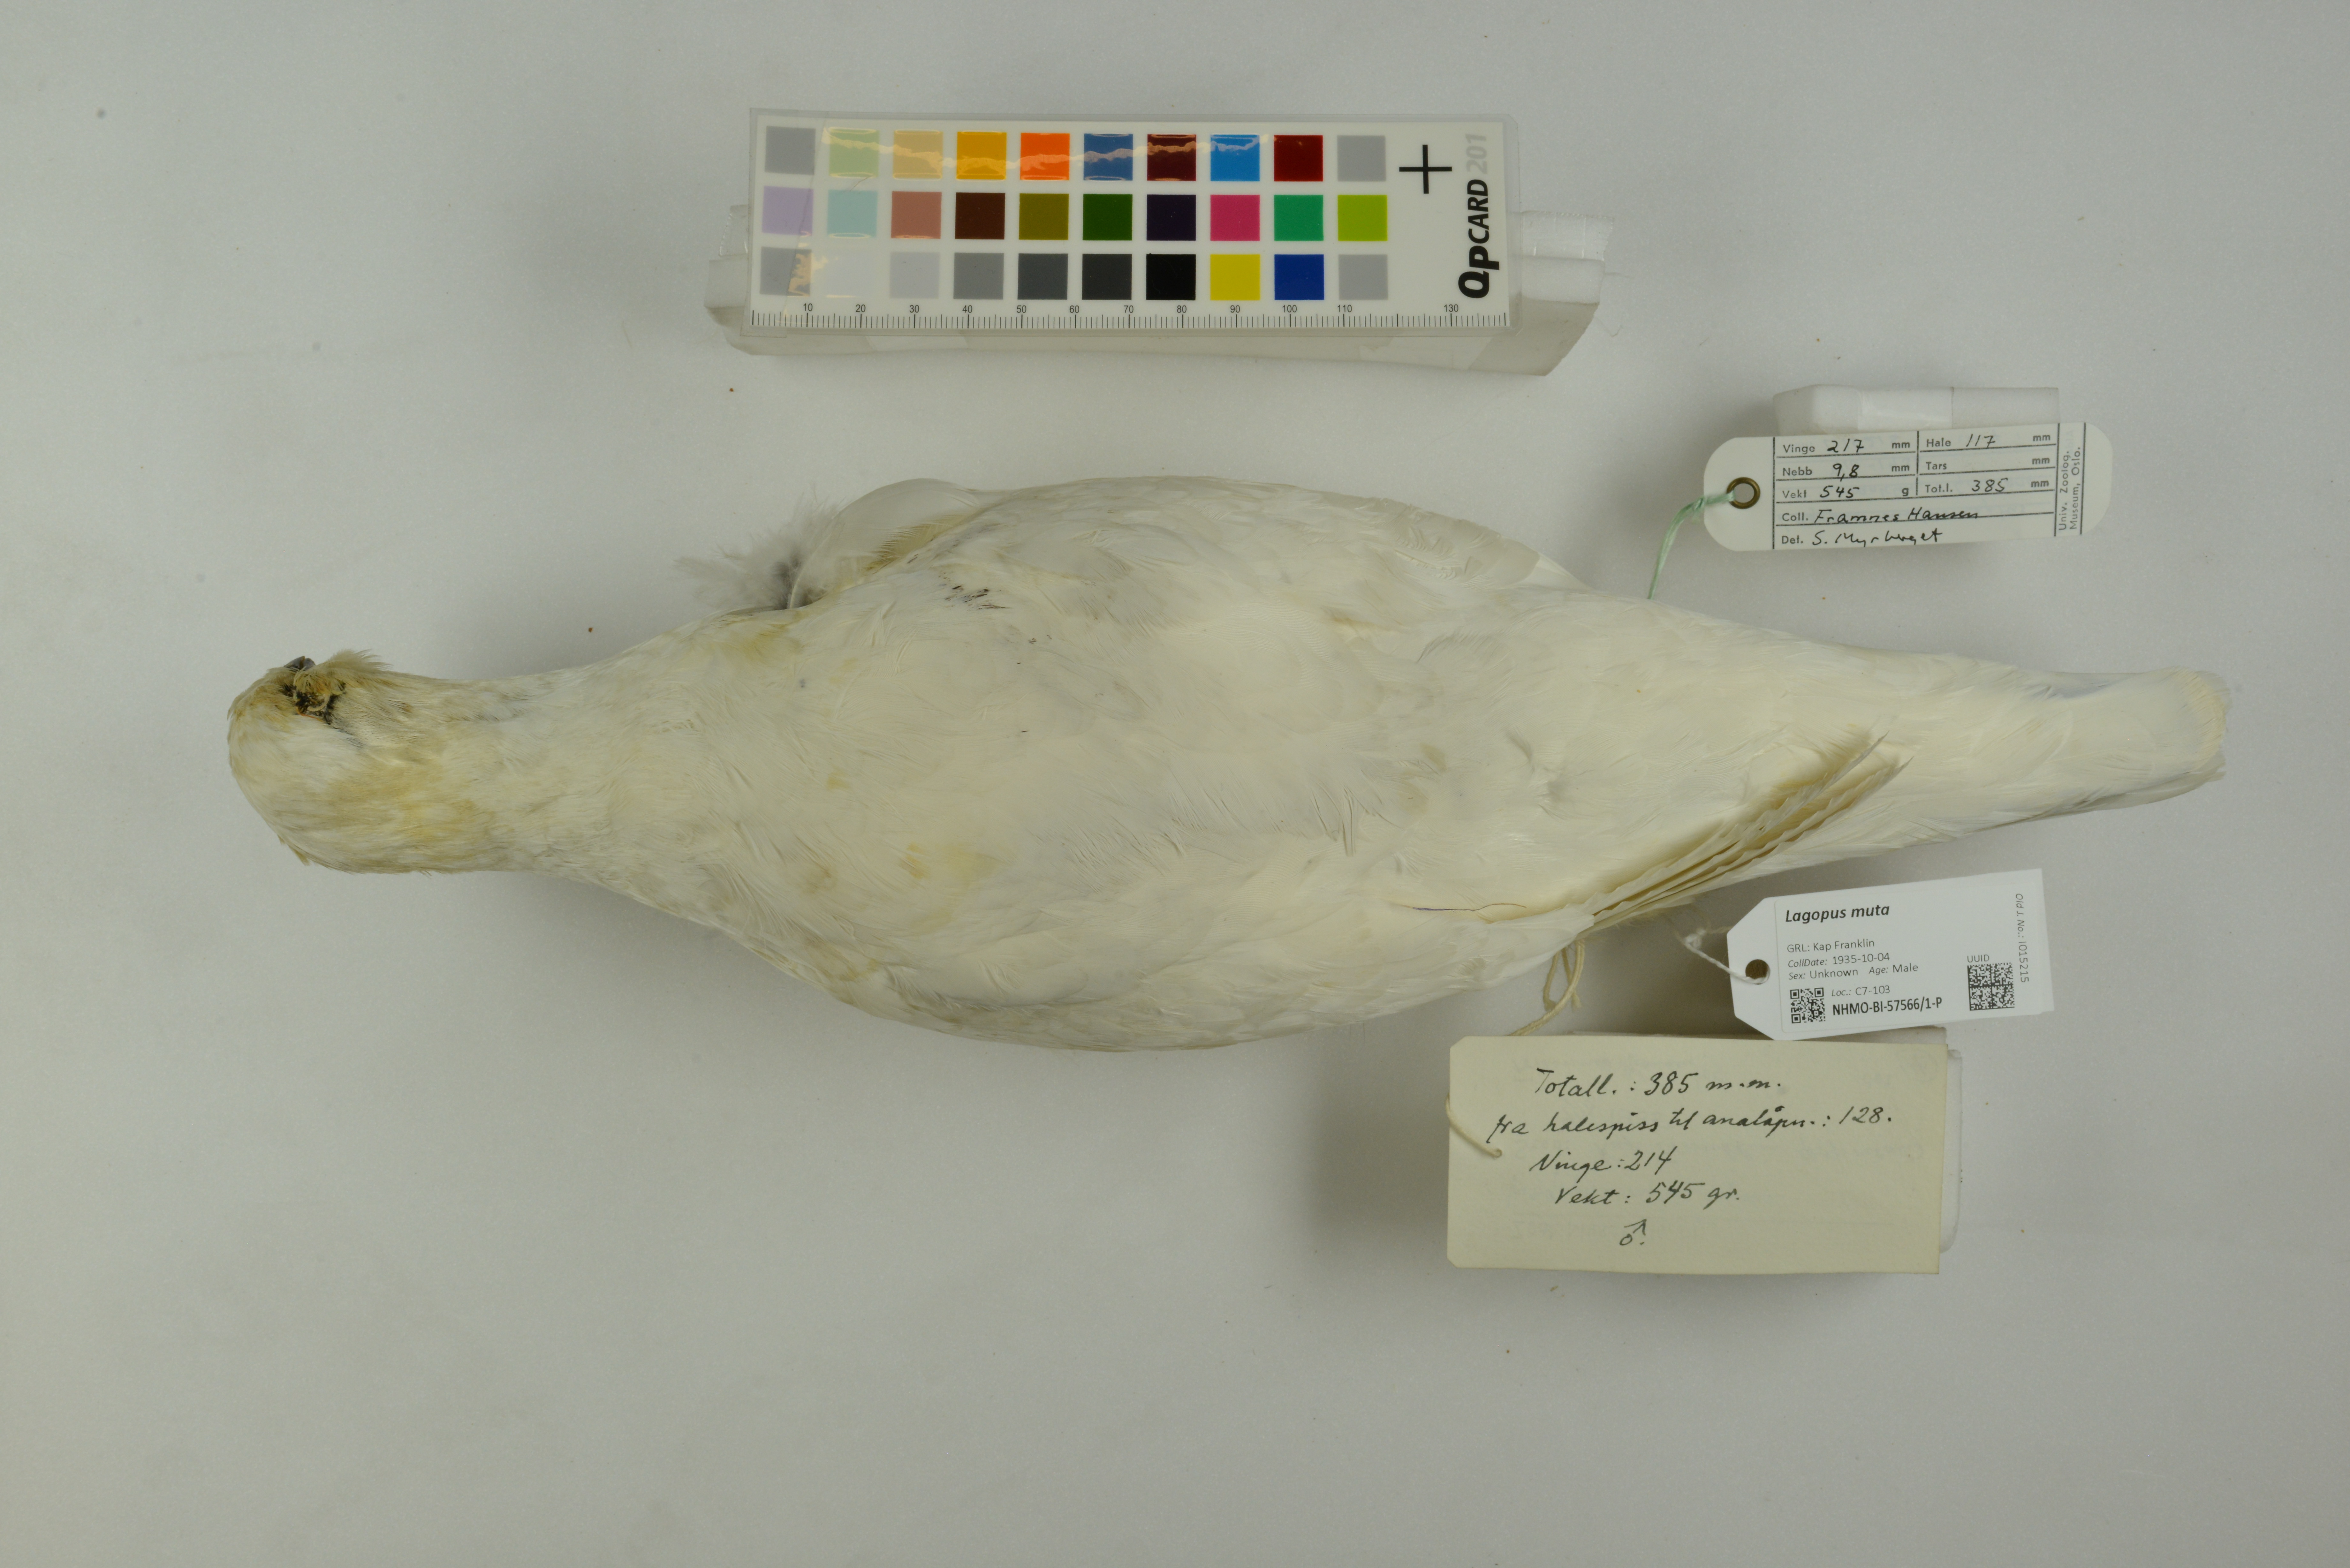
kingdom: Animalia
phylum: Chordata
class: Aves
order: Galliformes
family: Phasianidae
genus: Lagopus
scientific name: Lagopus muta
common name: Rock ptarmigan
